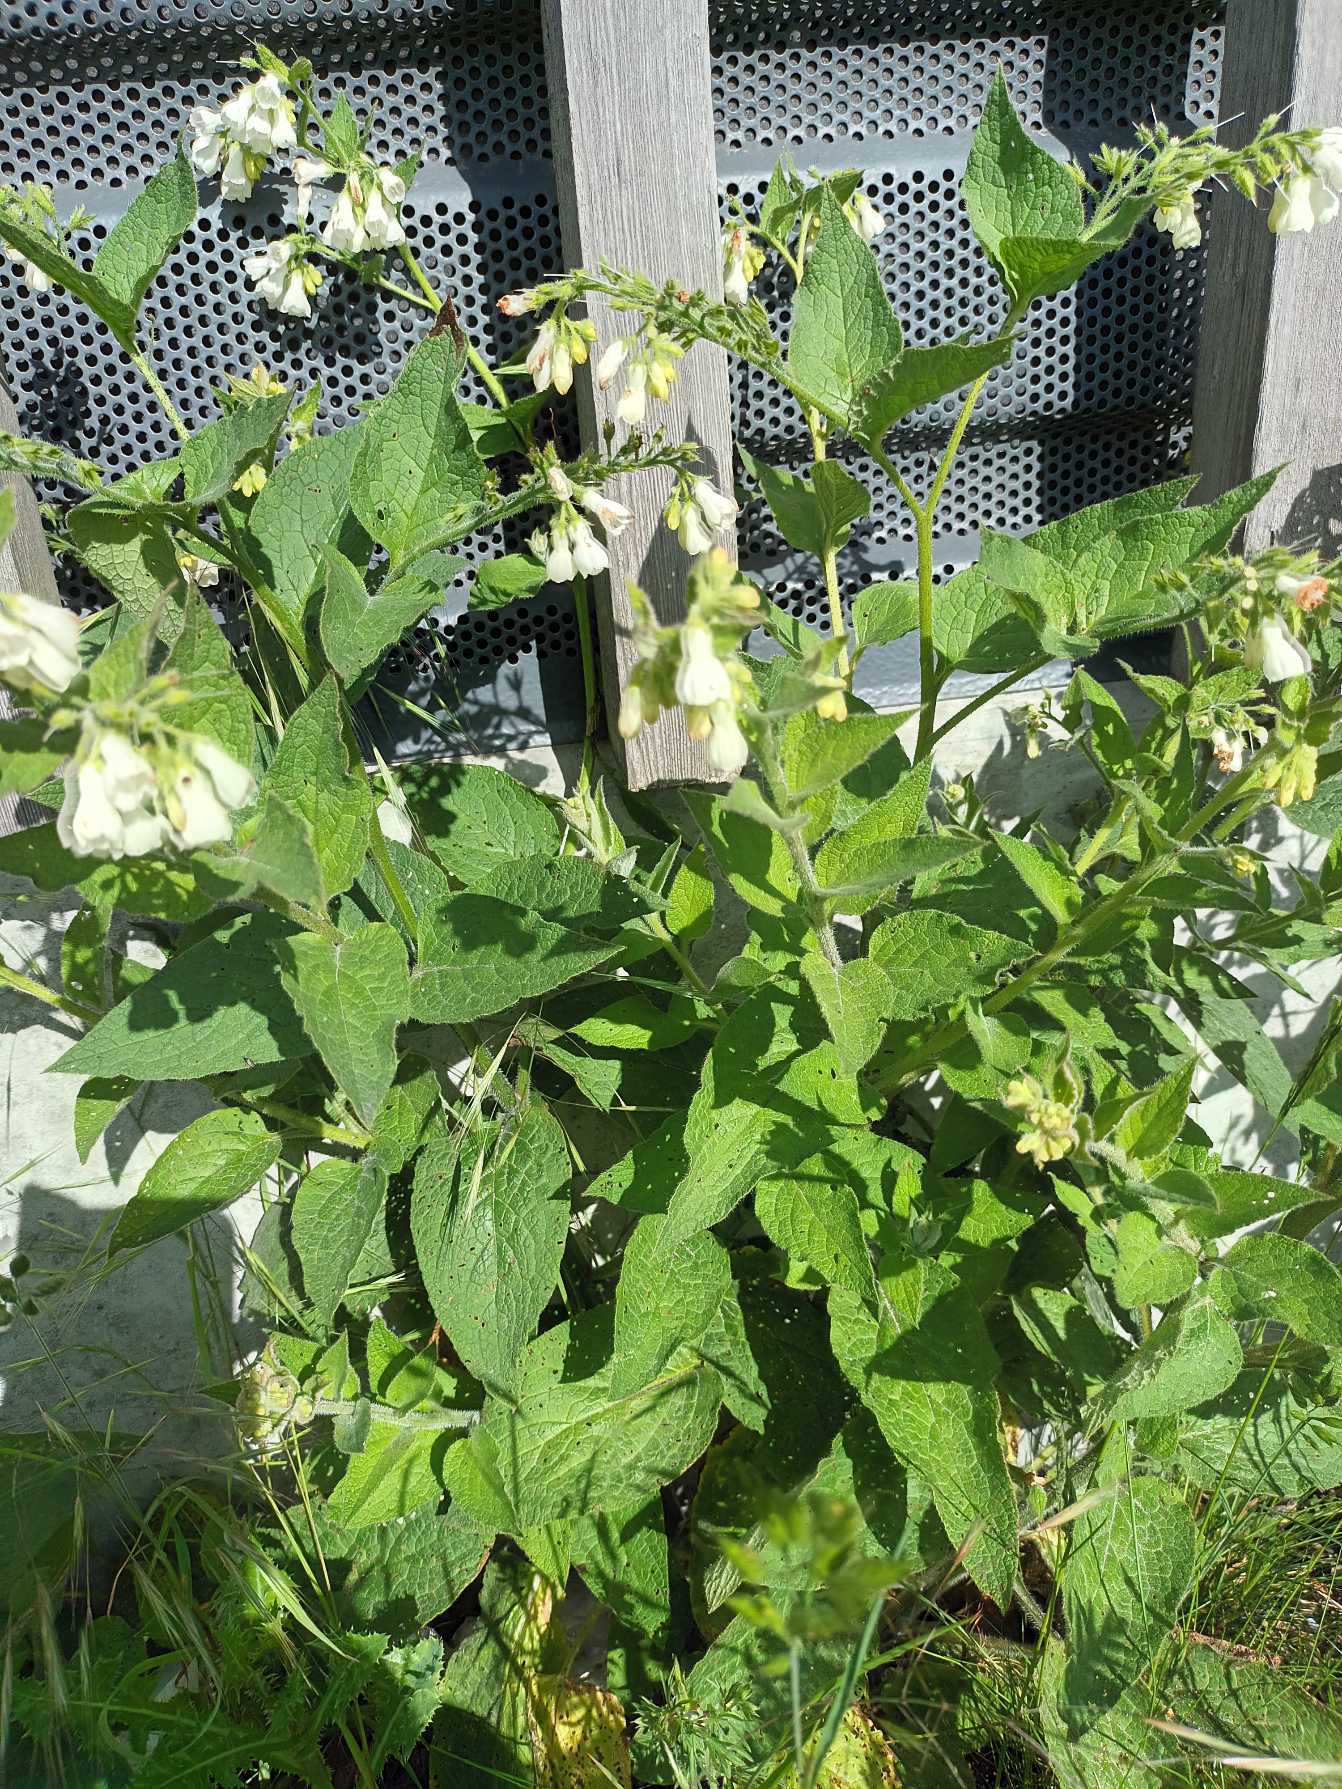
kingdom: Plantae
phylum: Tracheophyta
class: Magnoliopsida
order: Boraginales
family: Boraginaceae
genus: Symphytum
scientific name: Symphytum hidcotense
